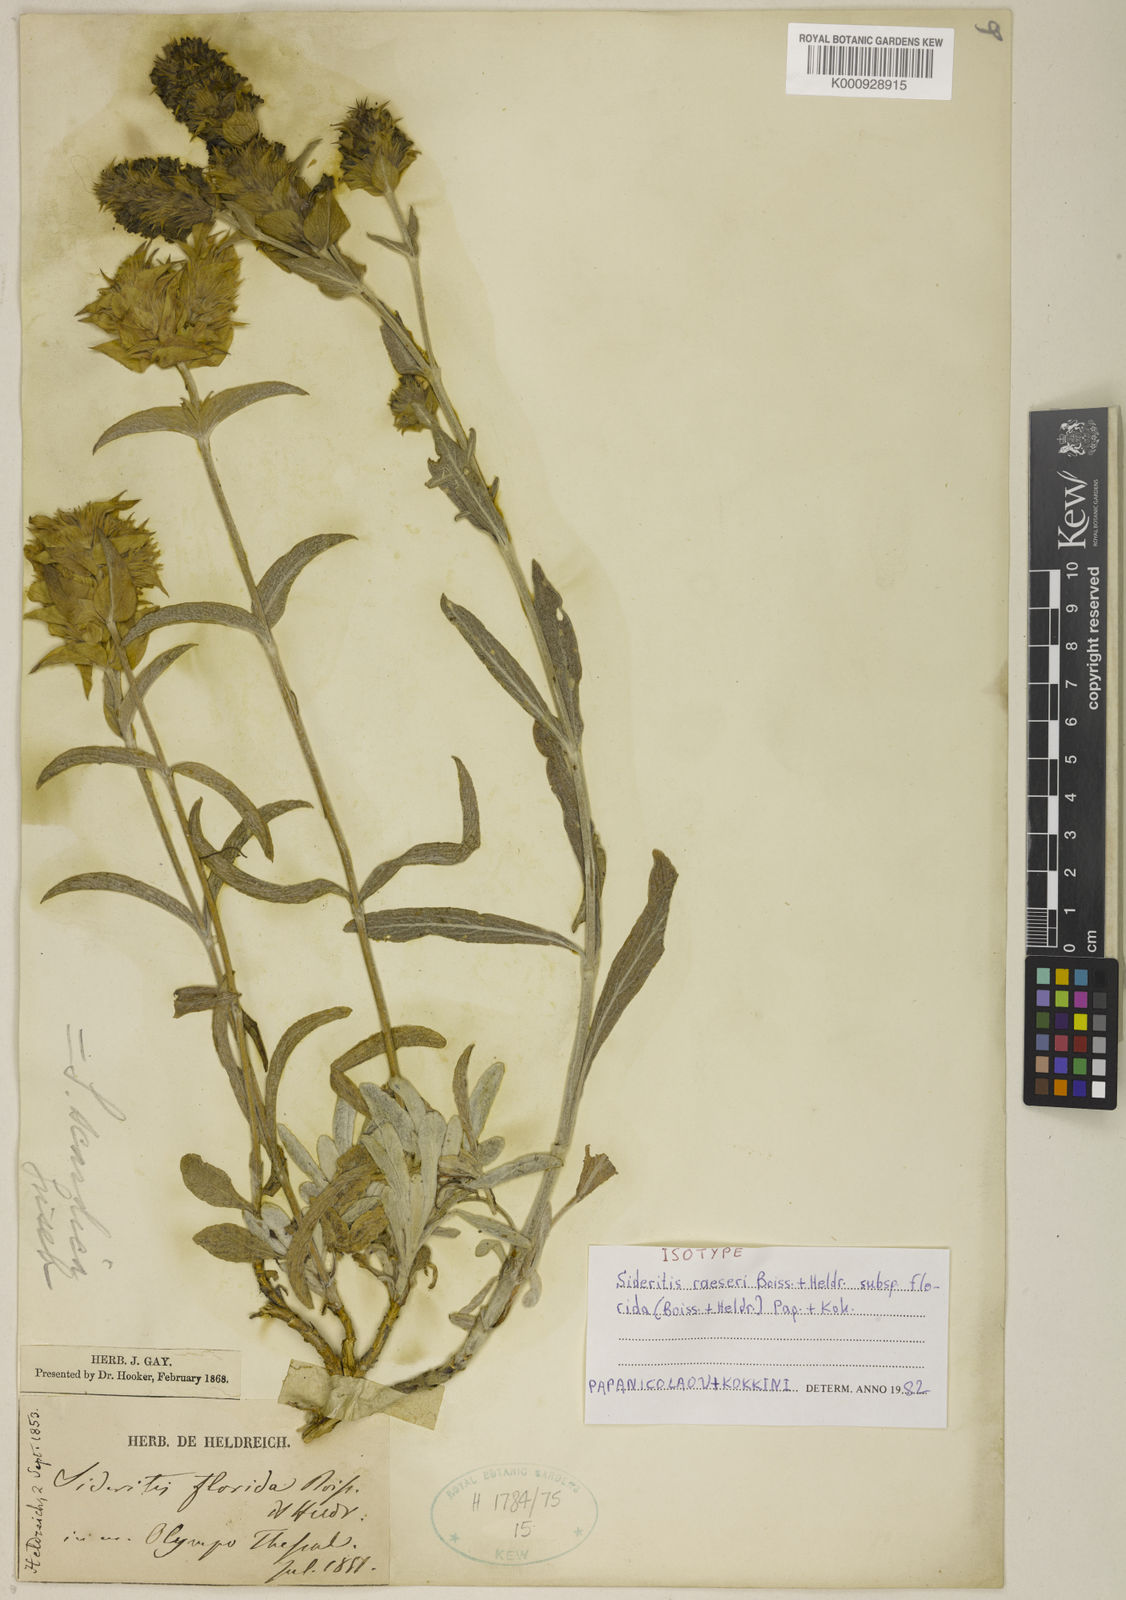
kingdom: Plantae
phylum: Tracheophyta
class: Magnoliopsida
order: Lamiales
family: Lamiaceae
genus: Sideritis
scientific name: Sideritis syriaca
